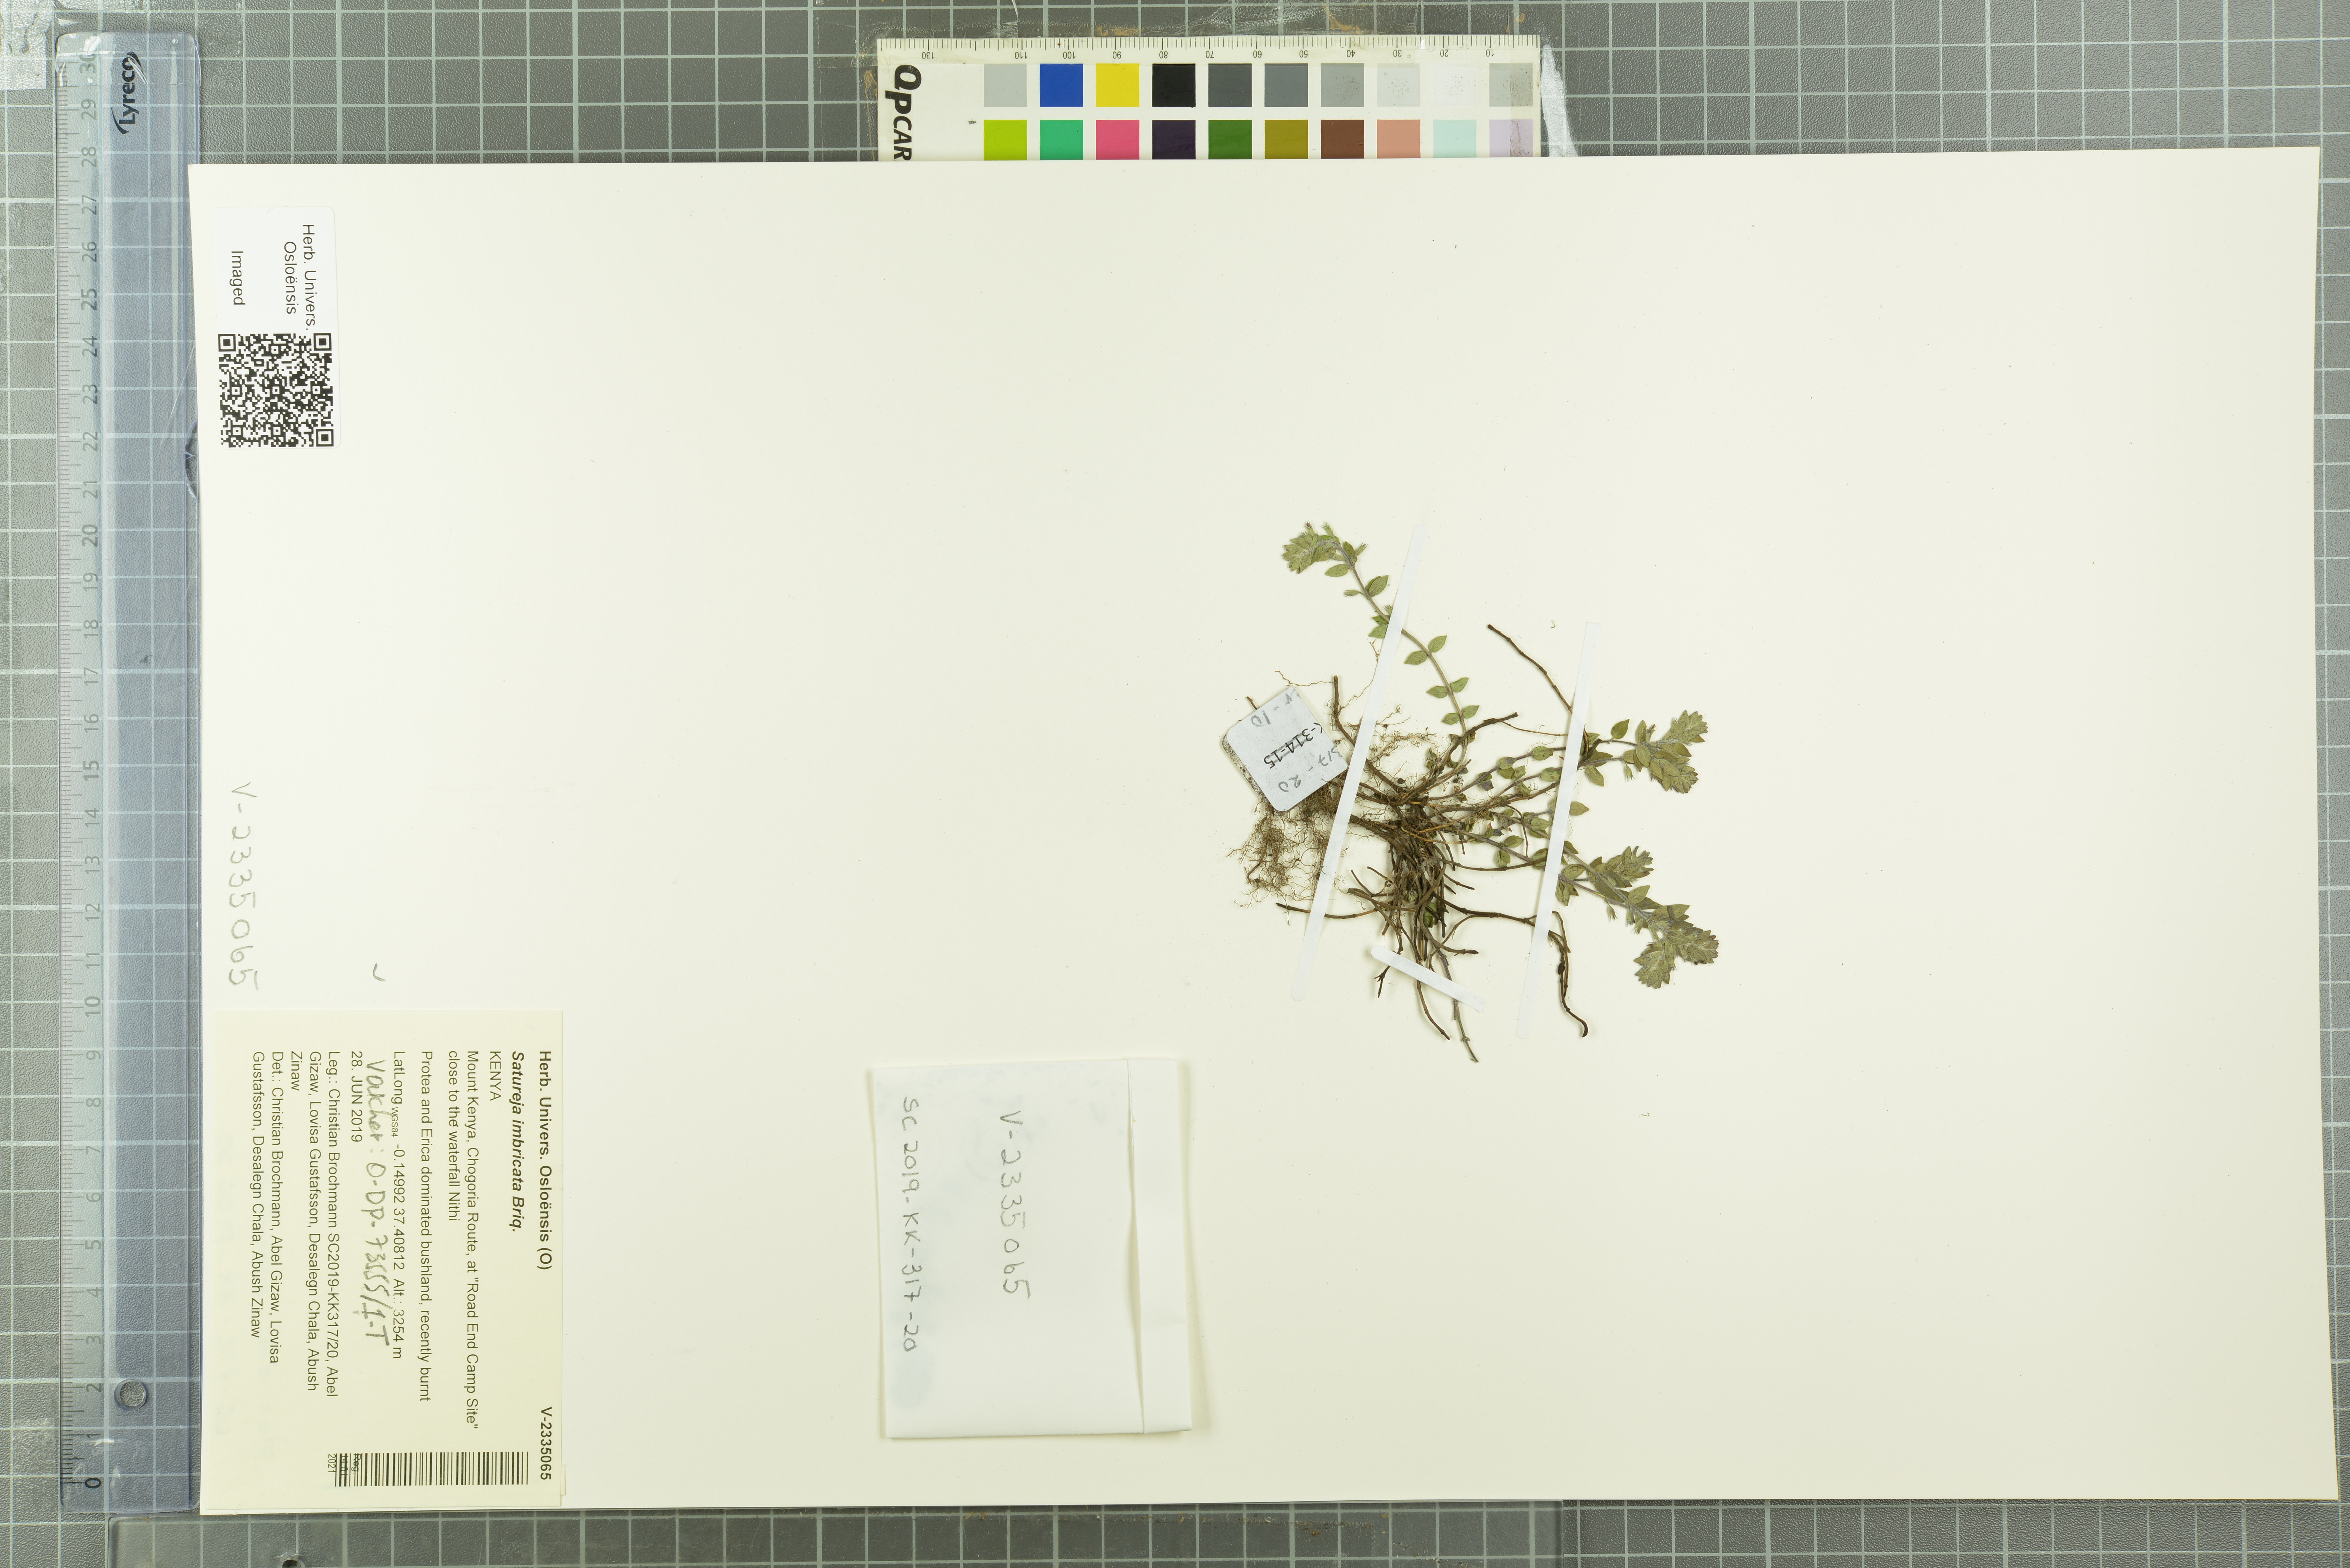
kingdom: Plantae
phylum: Tracheophyta
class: Magnoliopsida
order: Lamiales
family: Lamiaceae
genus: Micromeria
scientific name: Micromeria imbricata
